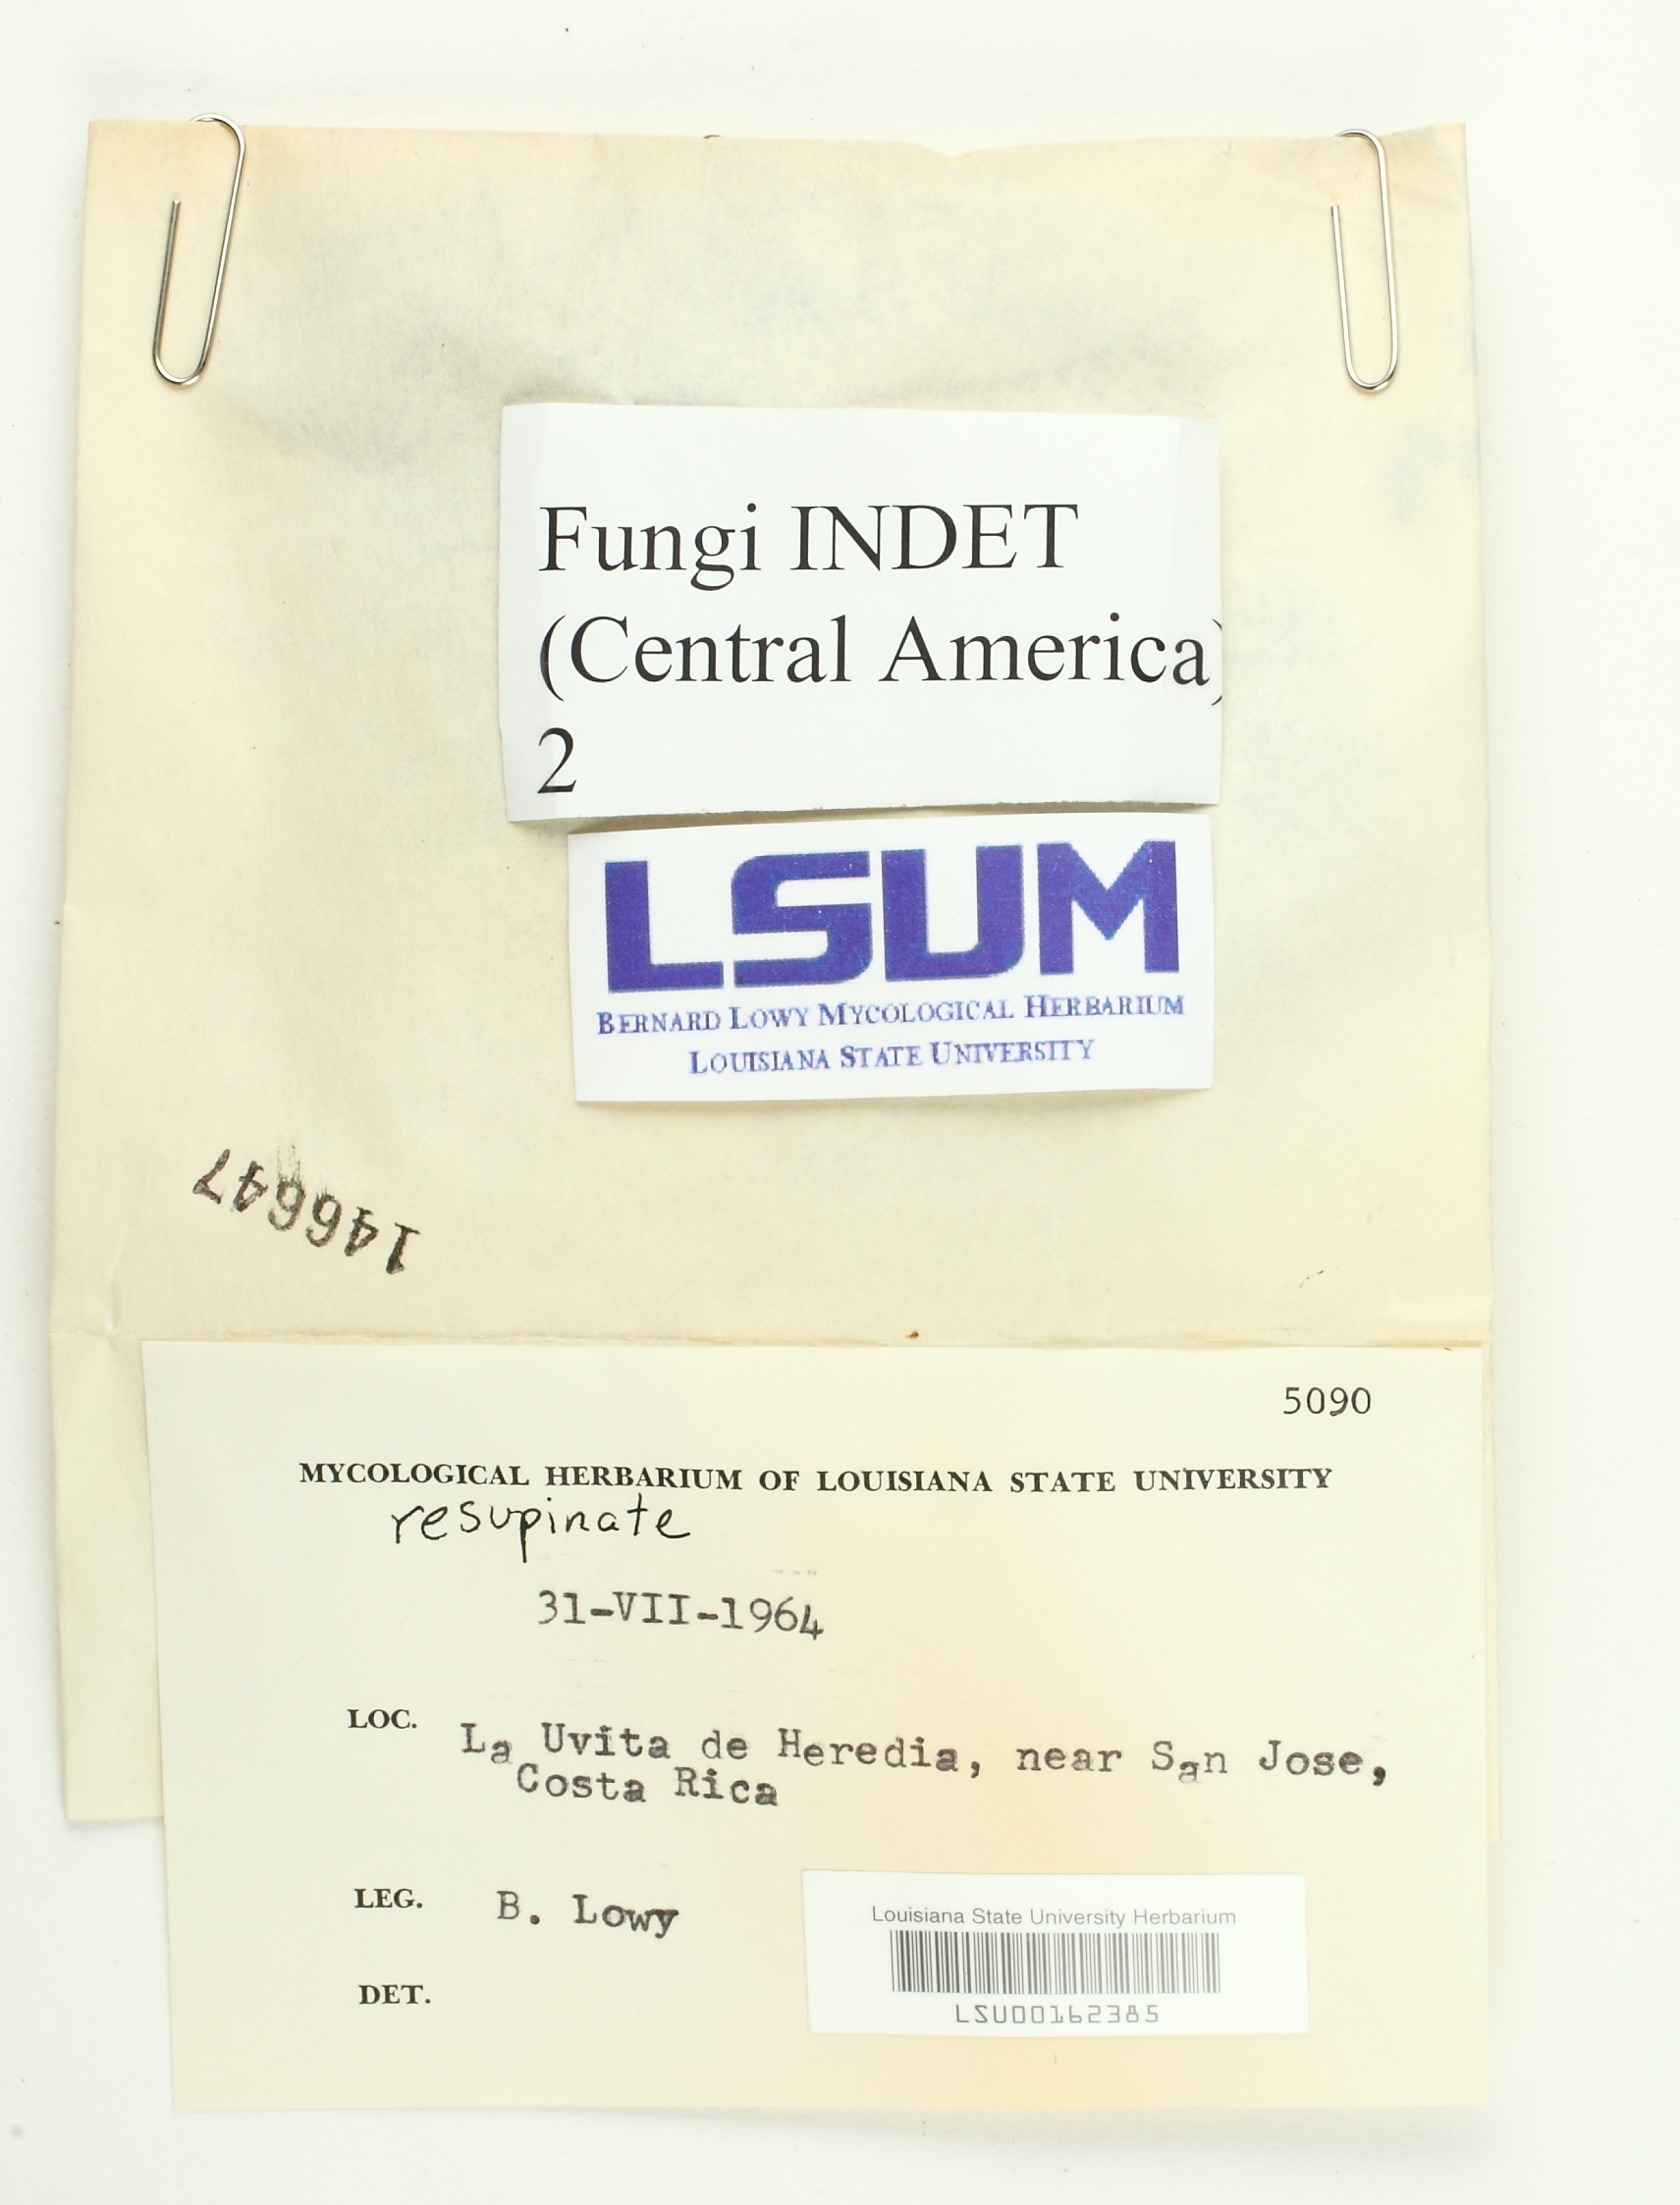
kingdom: Fungi
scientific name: Fungi
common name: Fungi
